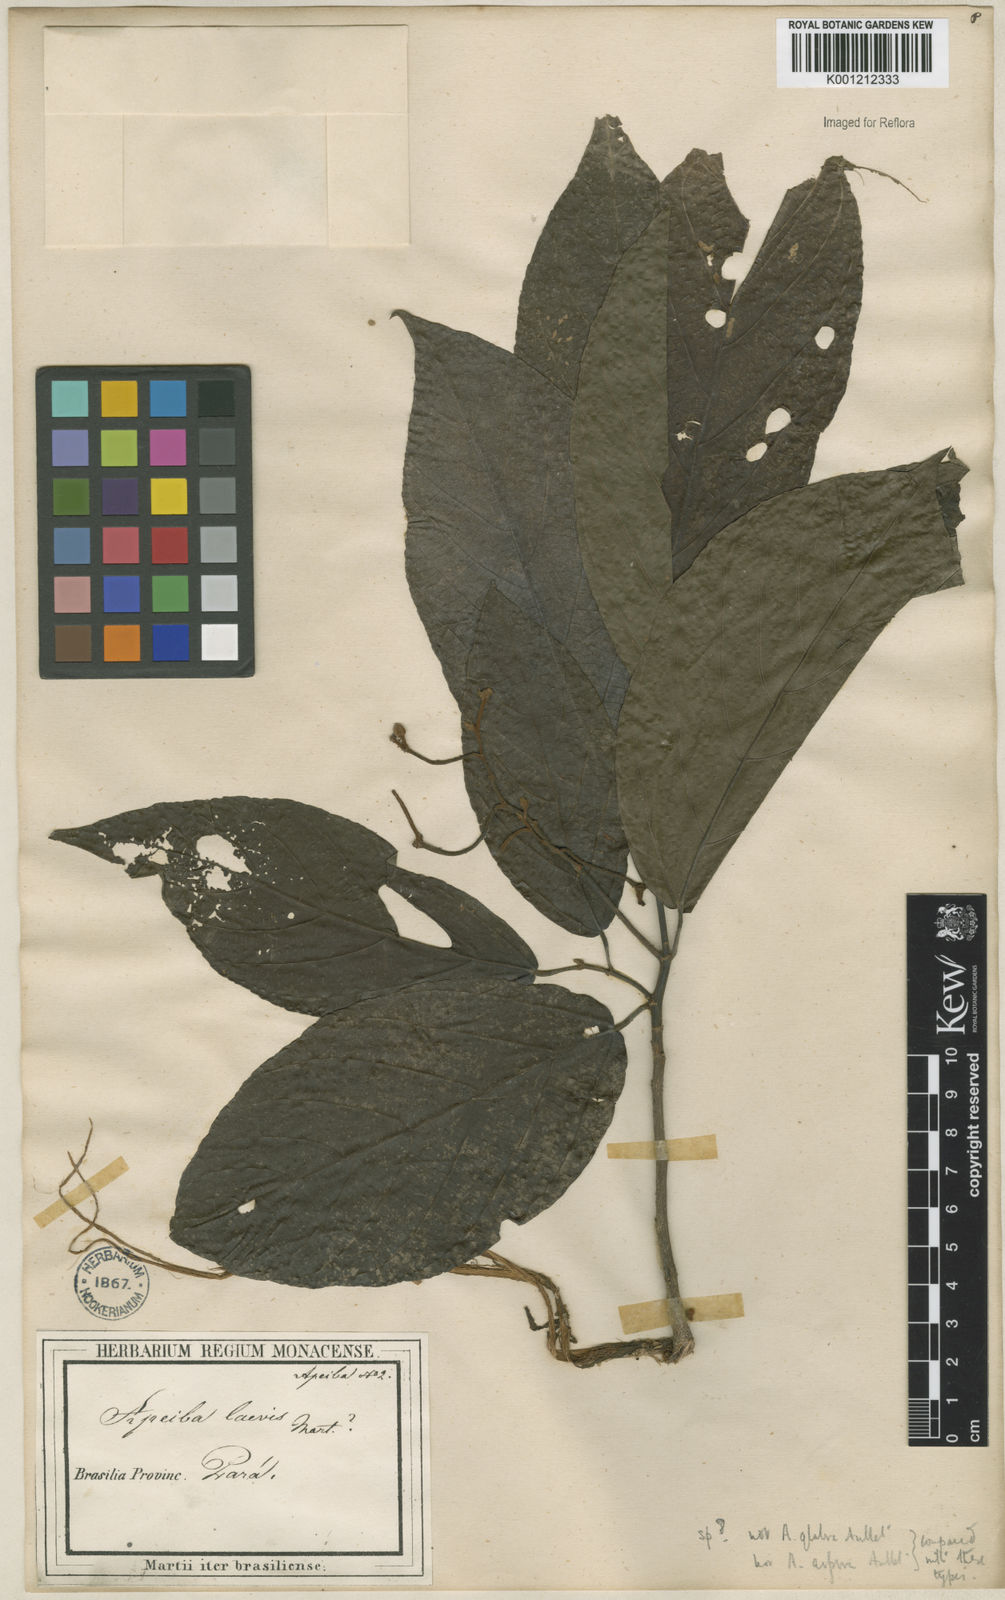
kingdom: Plantae
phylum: Tracheophyta
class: Magnoliopsida
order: Malvales
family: Malvaceae
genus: Apeiba
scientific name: Apeiba intermedia
